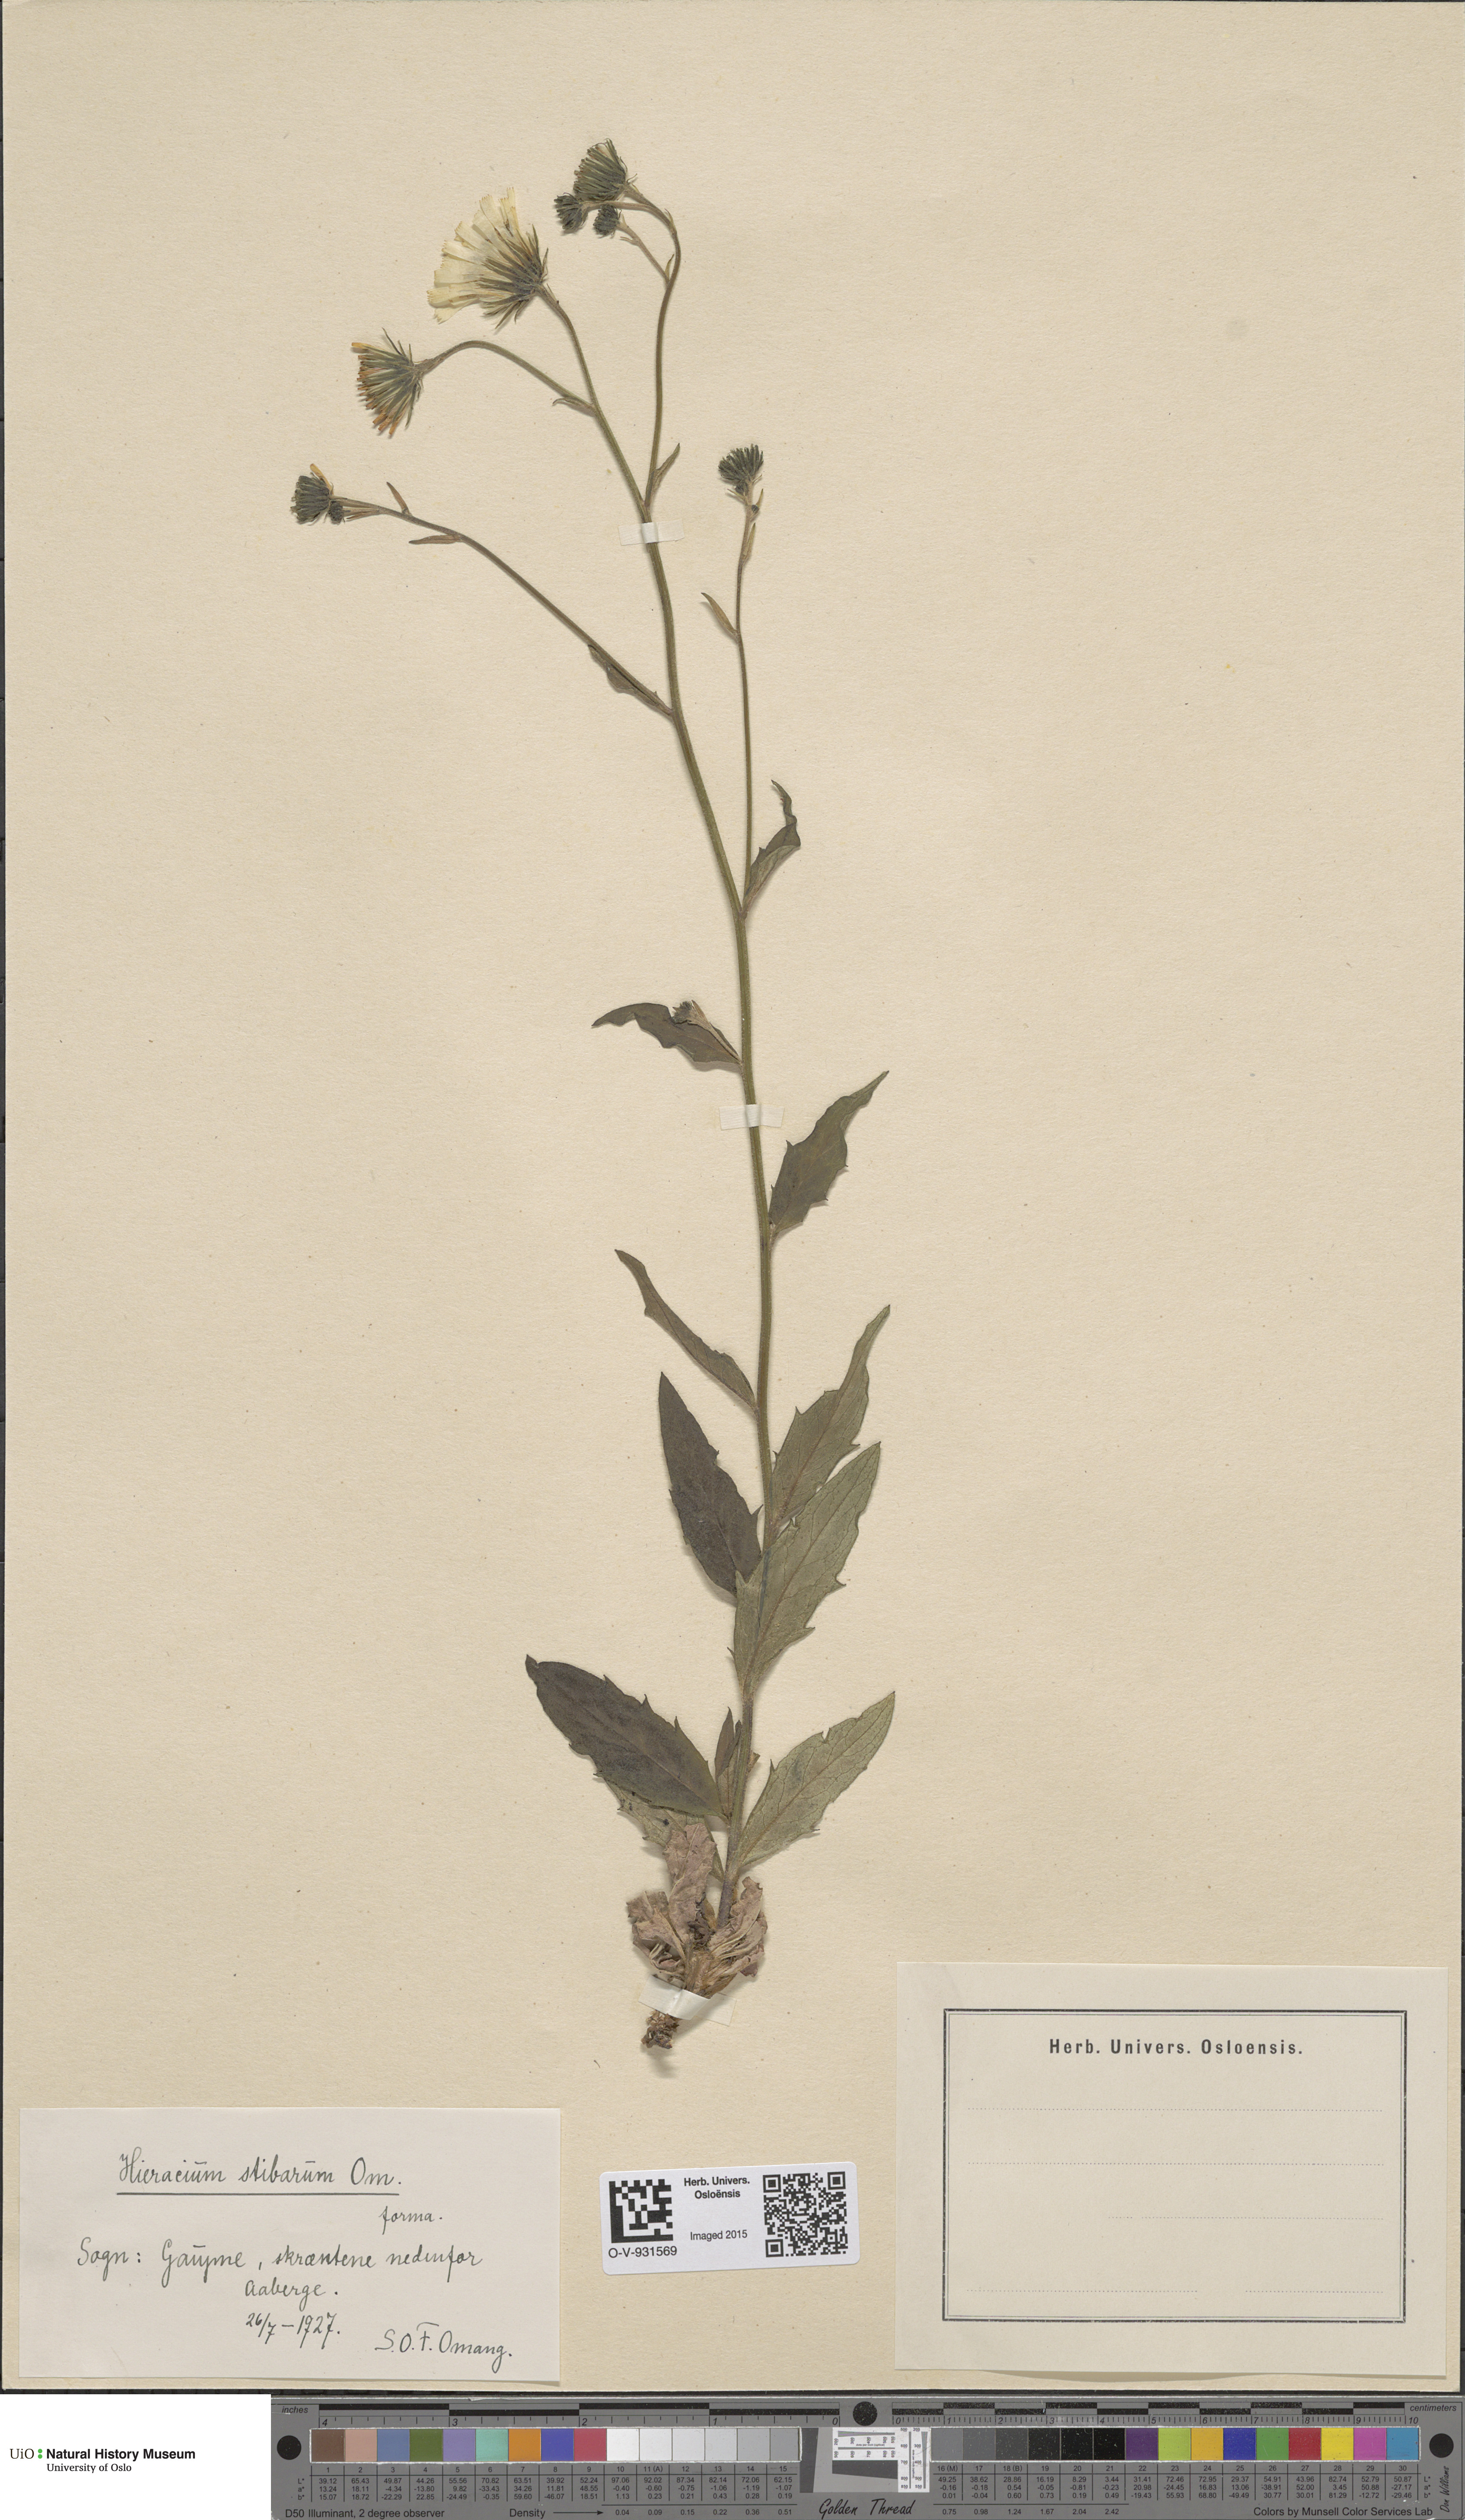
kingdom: Plantae
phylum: Tracheophyta
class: Magnoliopsida
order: Asterales
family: Asteraceae
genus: Hieracium
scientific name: Hieracium
